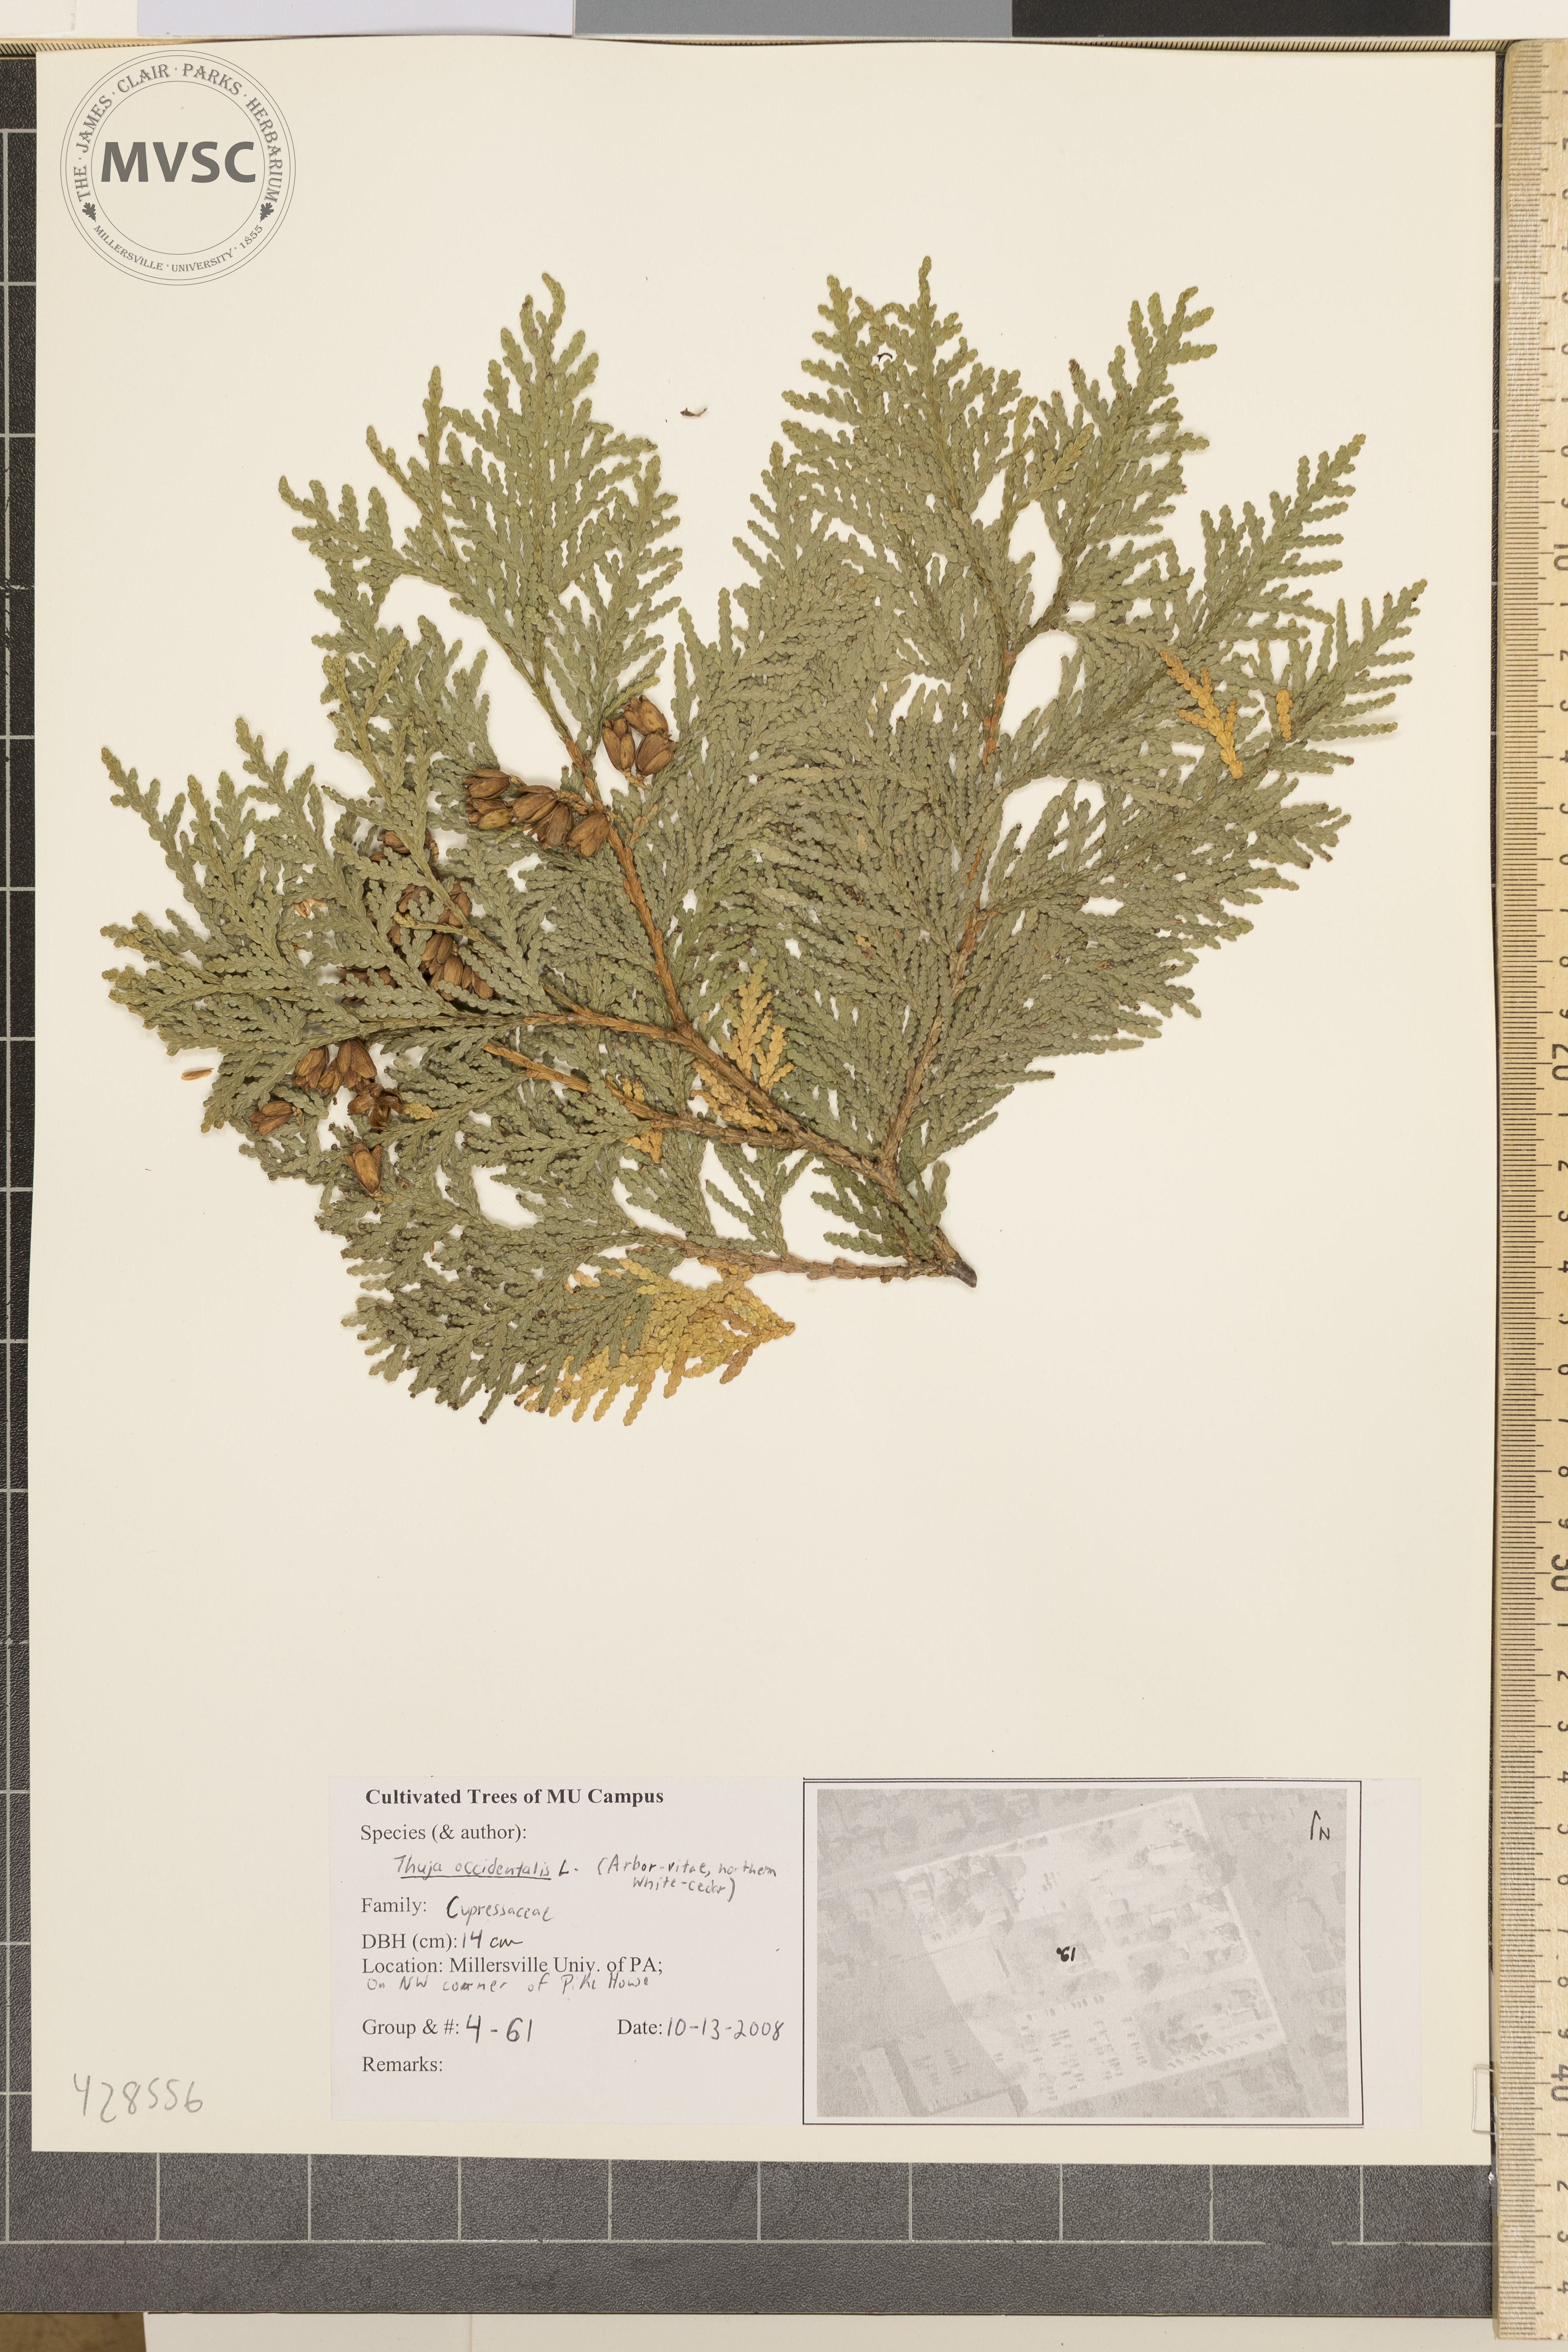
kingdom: Plantae
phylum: Tracheophyta
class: Pinopsida
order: Pinales
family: Cupressaceae
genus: Thuja
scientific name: Thuja occidentalis
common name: Arborvitae
